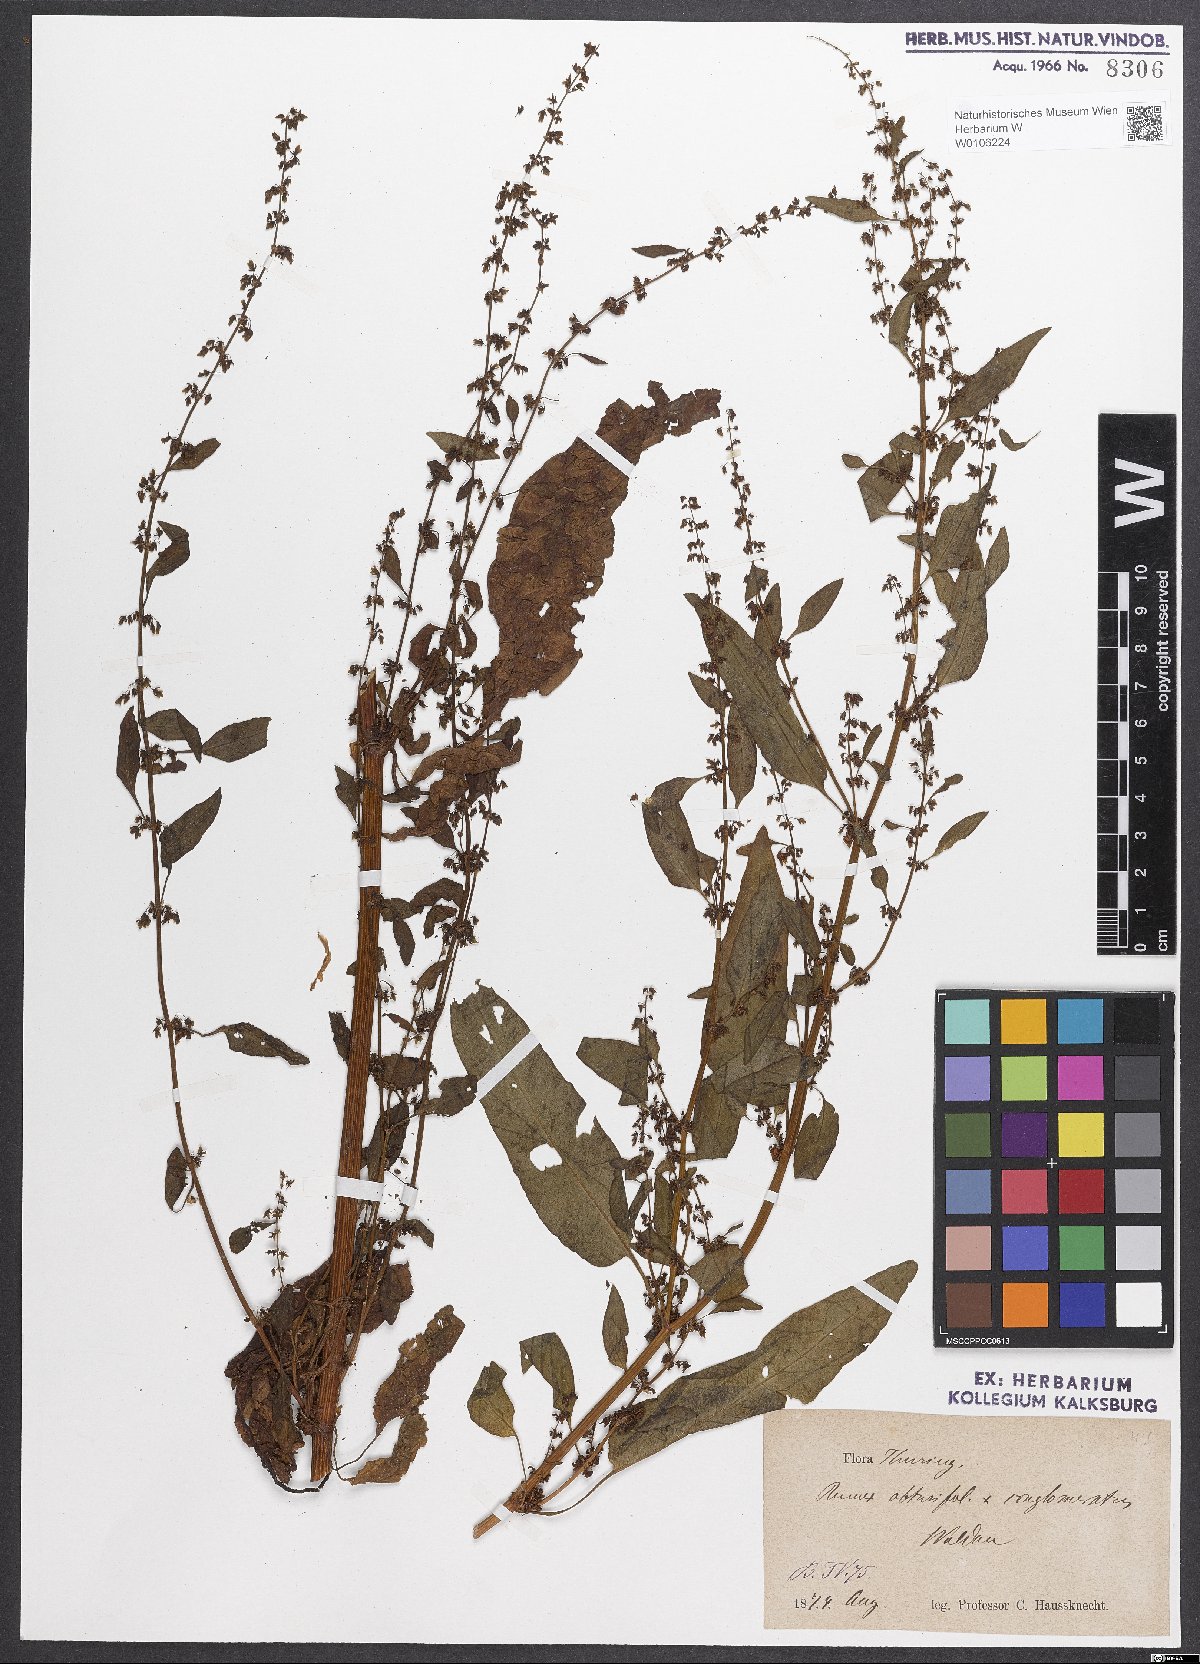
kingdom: Plantae
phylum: Tracheophyta
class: Magnoliopsida
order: Caryophyllales
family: Polygonaceae
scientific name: Polygonaceae
